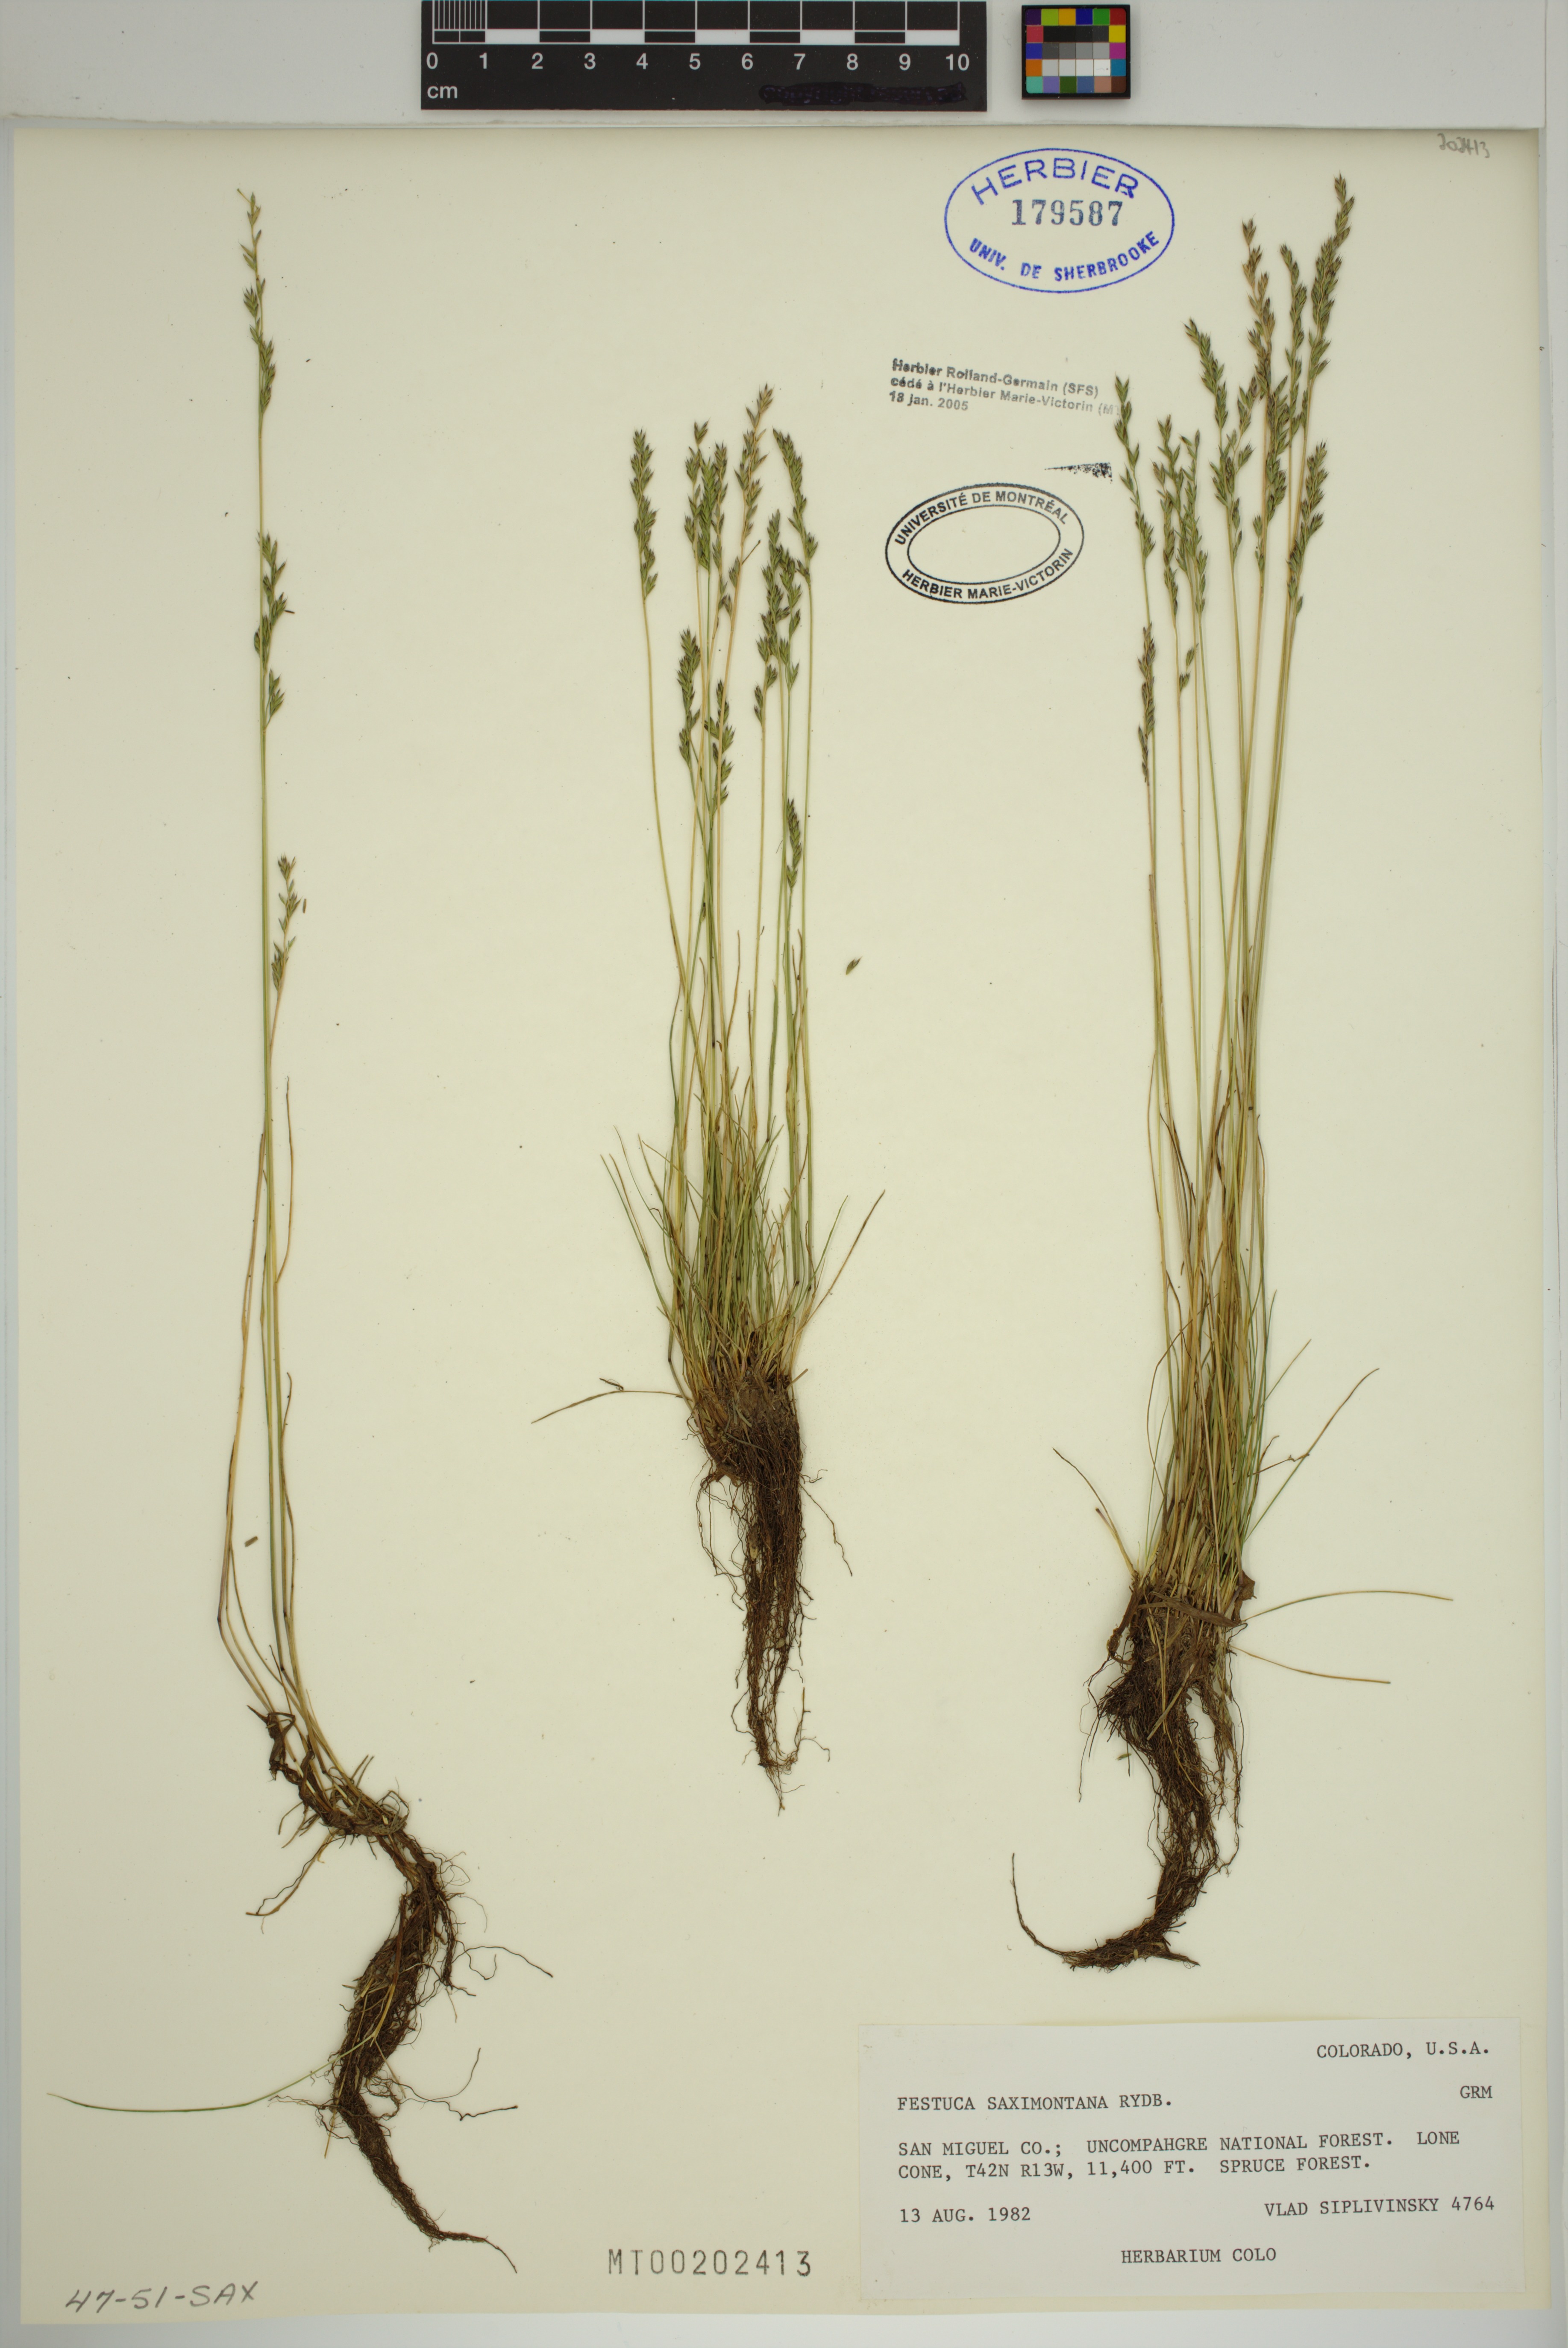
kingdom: Plantae
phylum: Tracheophyta
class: Liliopsida
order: Poales
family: Poaceae
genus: Festuca
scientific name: Festuca
